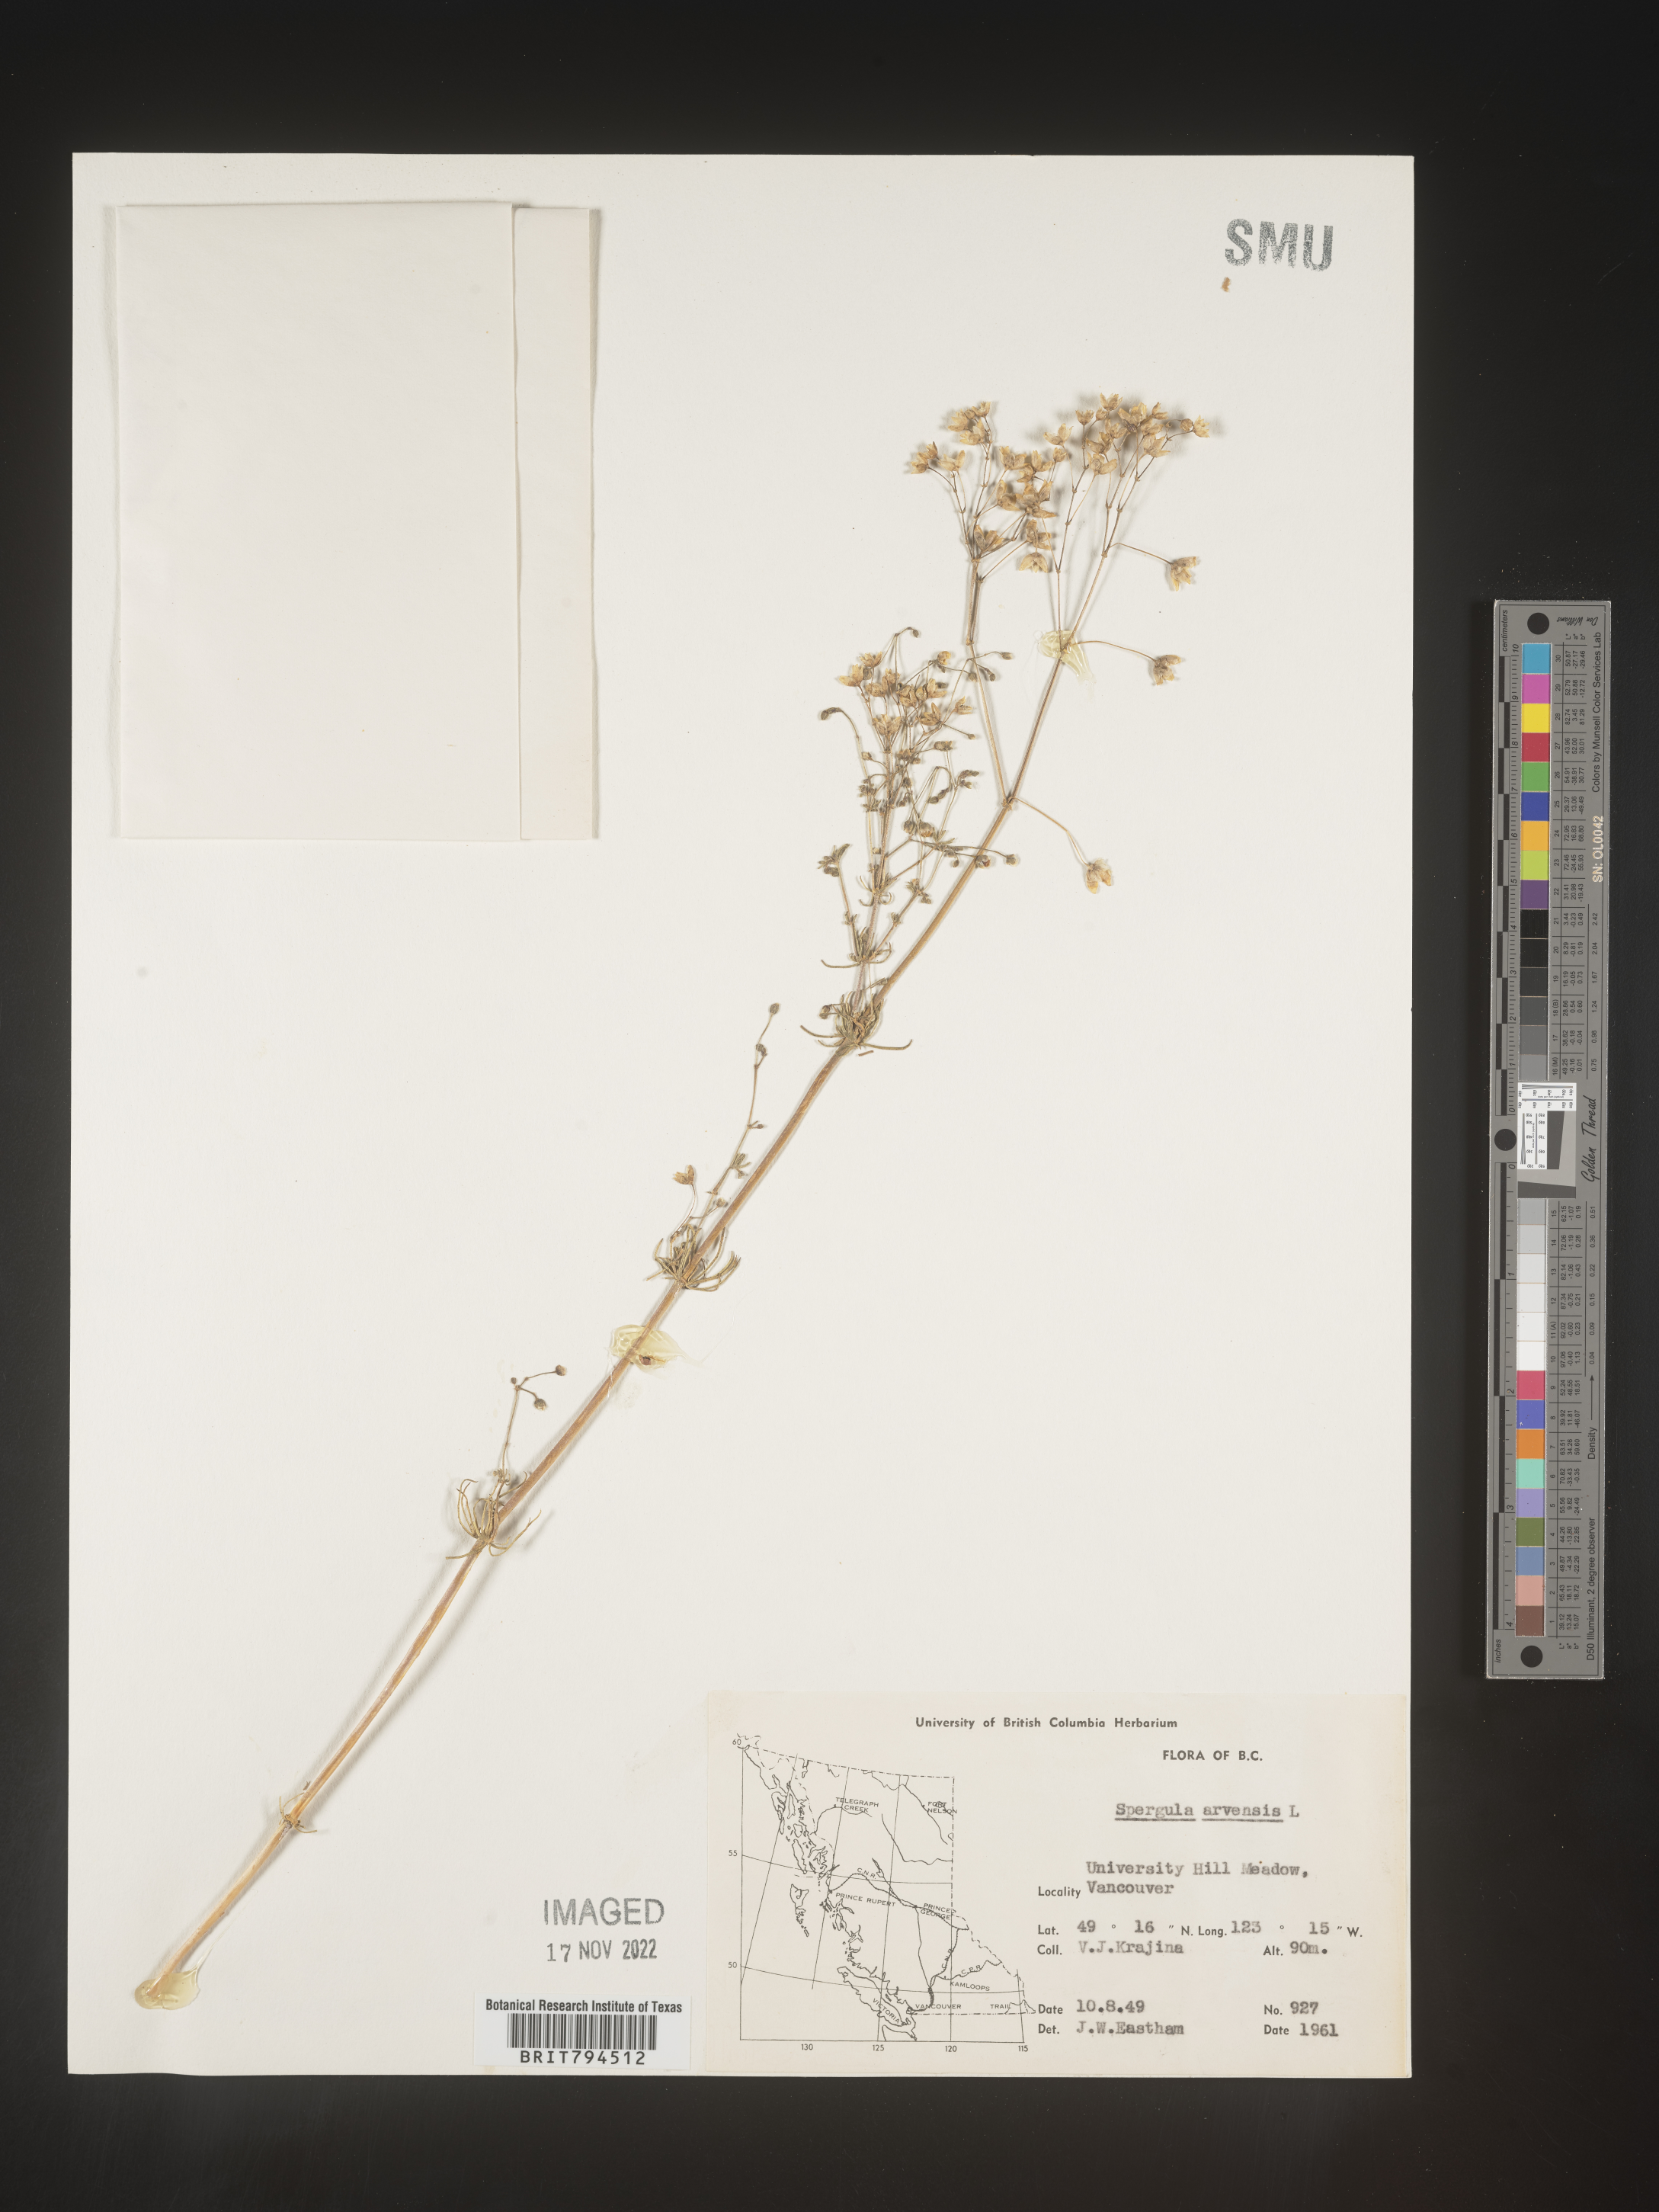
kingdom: Plantae
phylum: Tracheophyta
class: Magnoliopsida
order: Caryophyllales
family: Caryophyllaceae
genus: Spergula
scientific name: Spergula arvensis
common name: Corn spurrey
